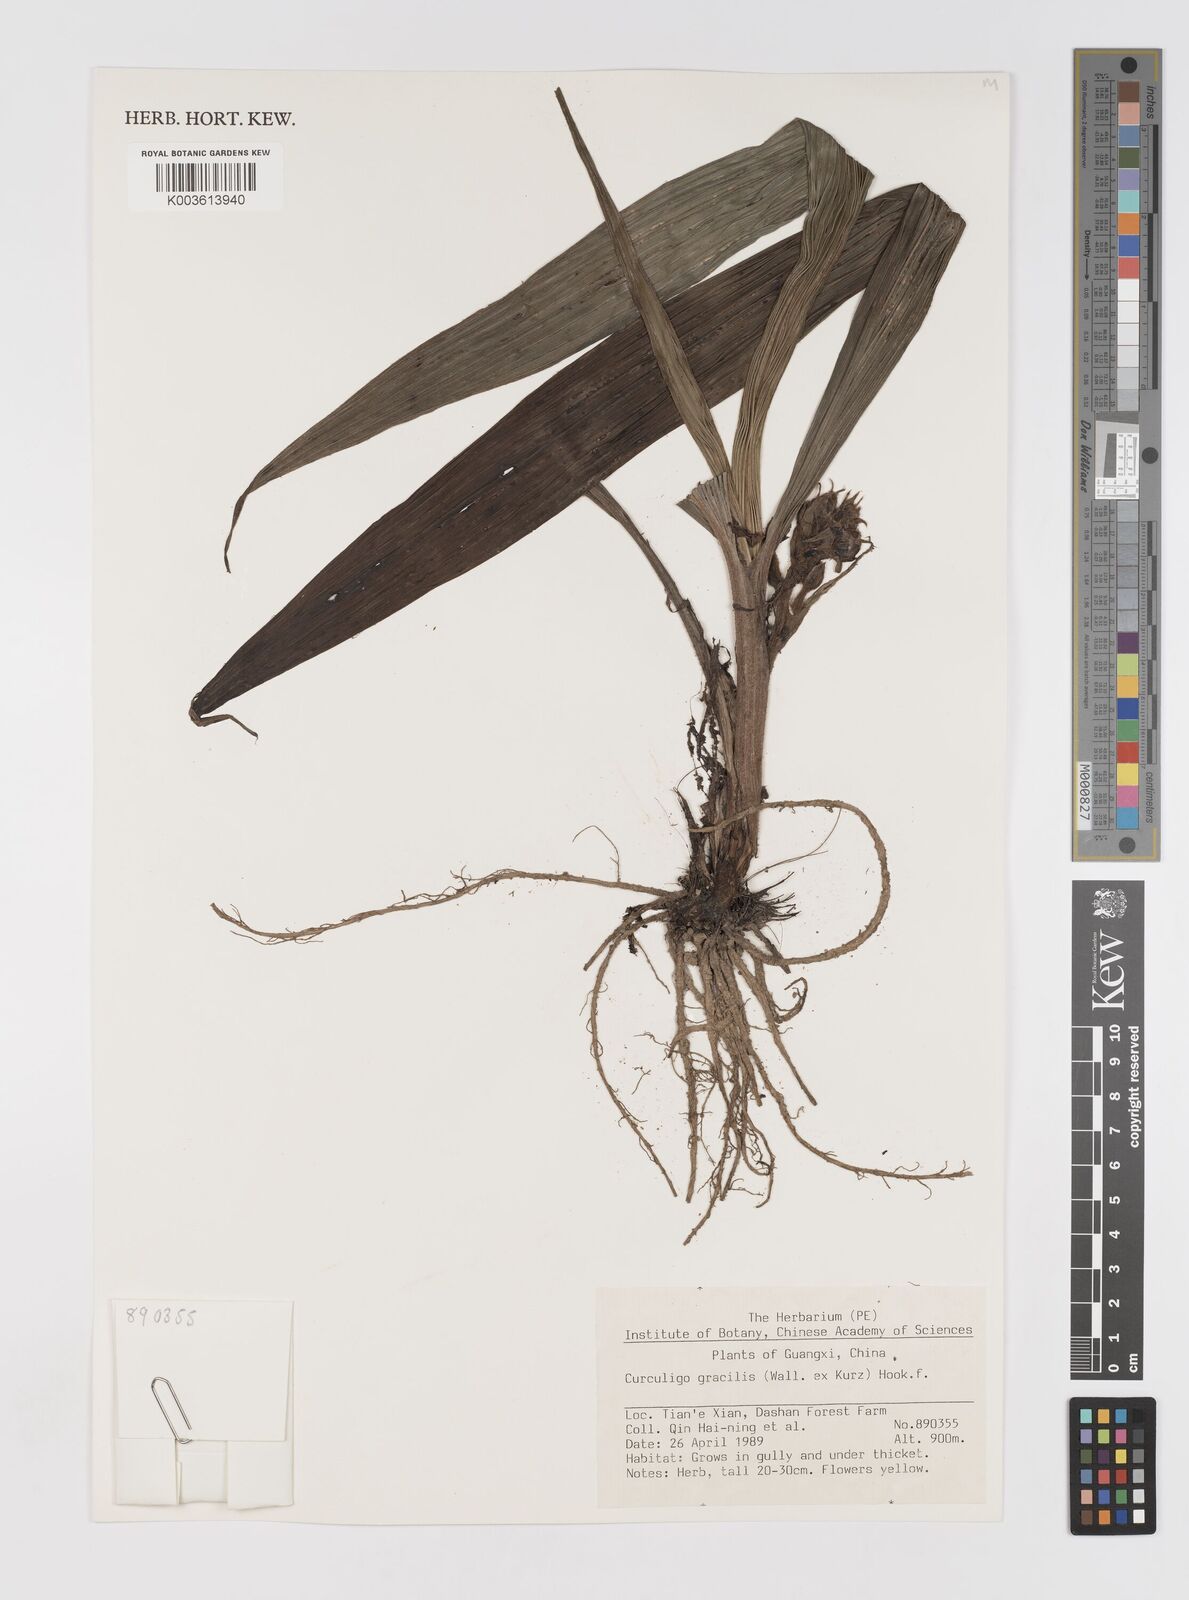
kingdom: Plantae
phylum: Tracheophyta
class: Liliopsida
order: Asparagales
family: Hypoxidaceae
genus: Curculigo
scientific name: Curculigo gracilis
